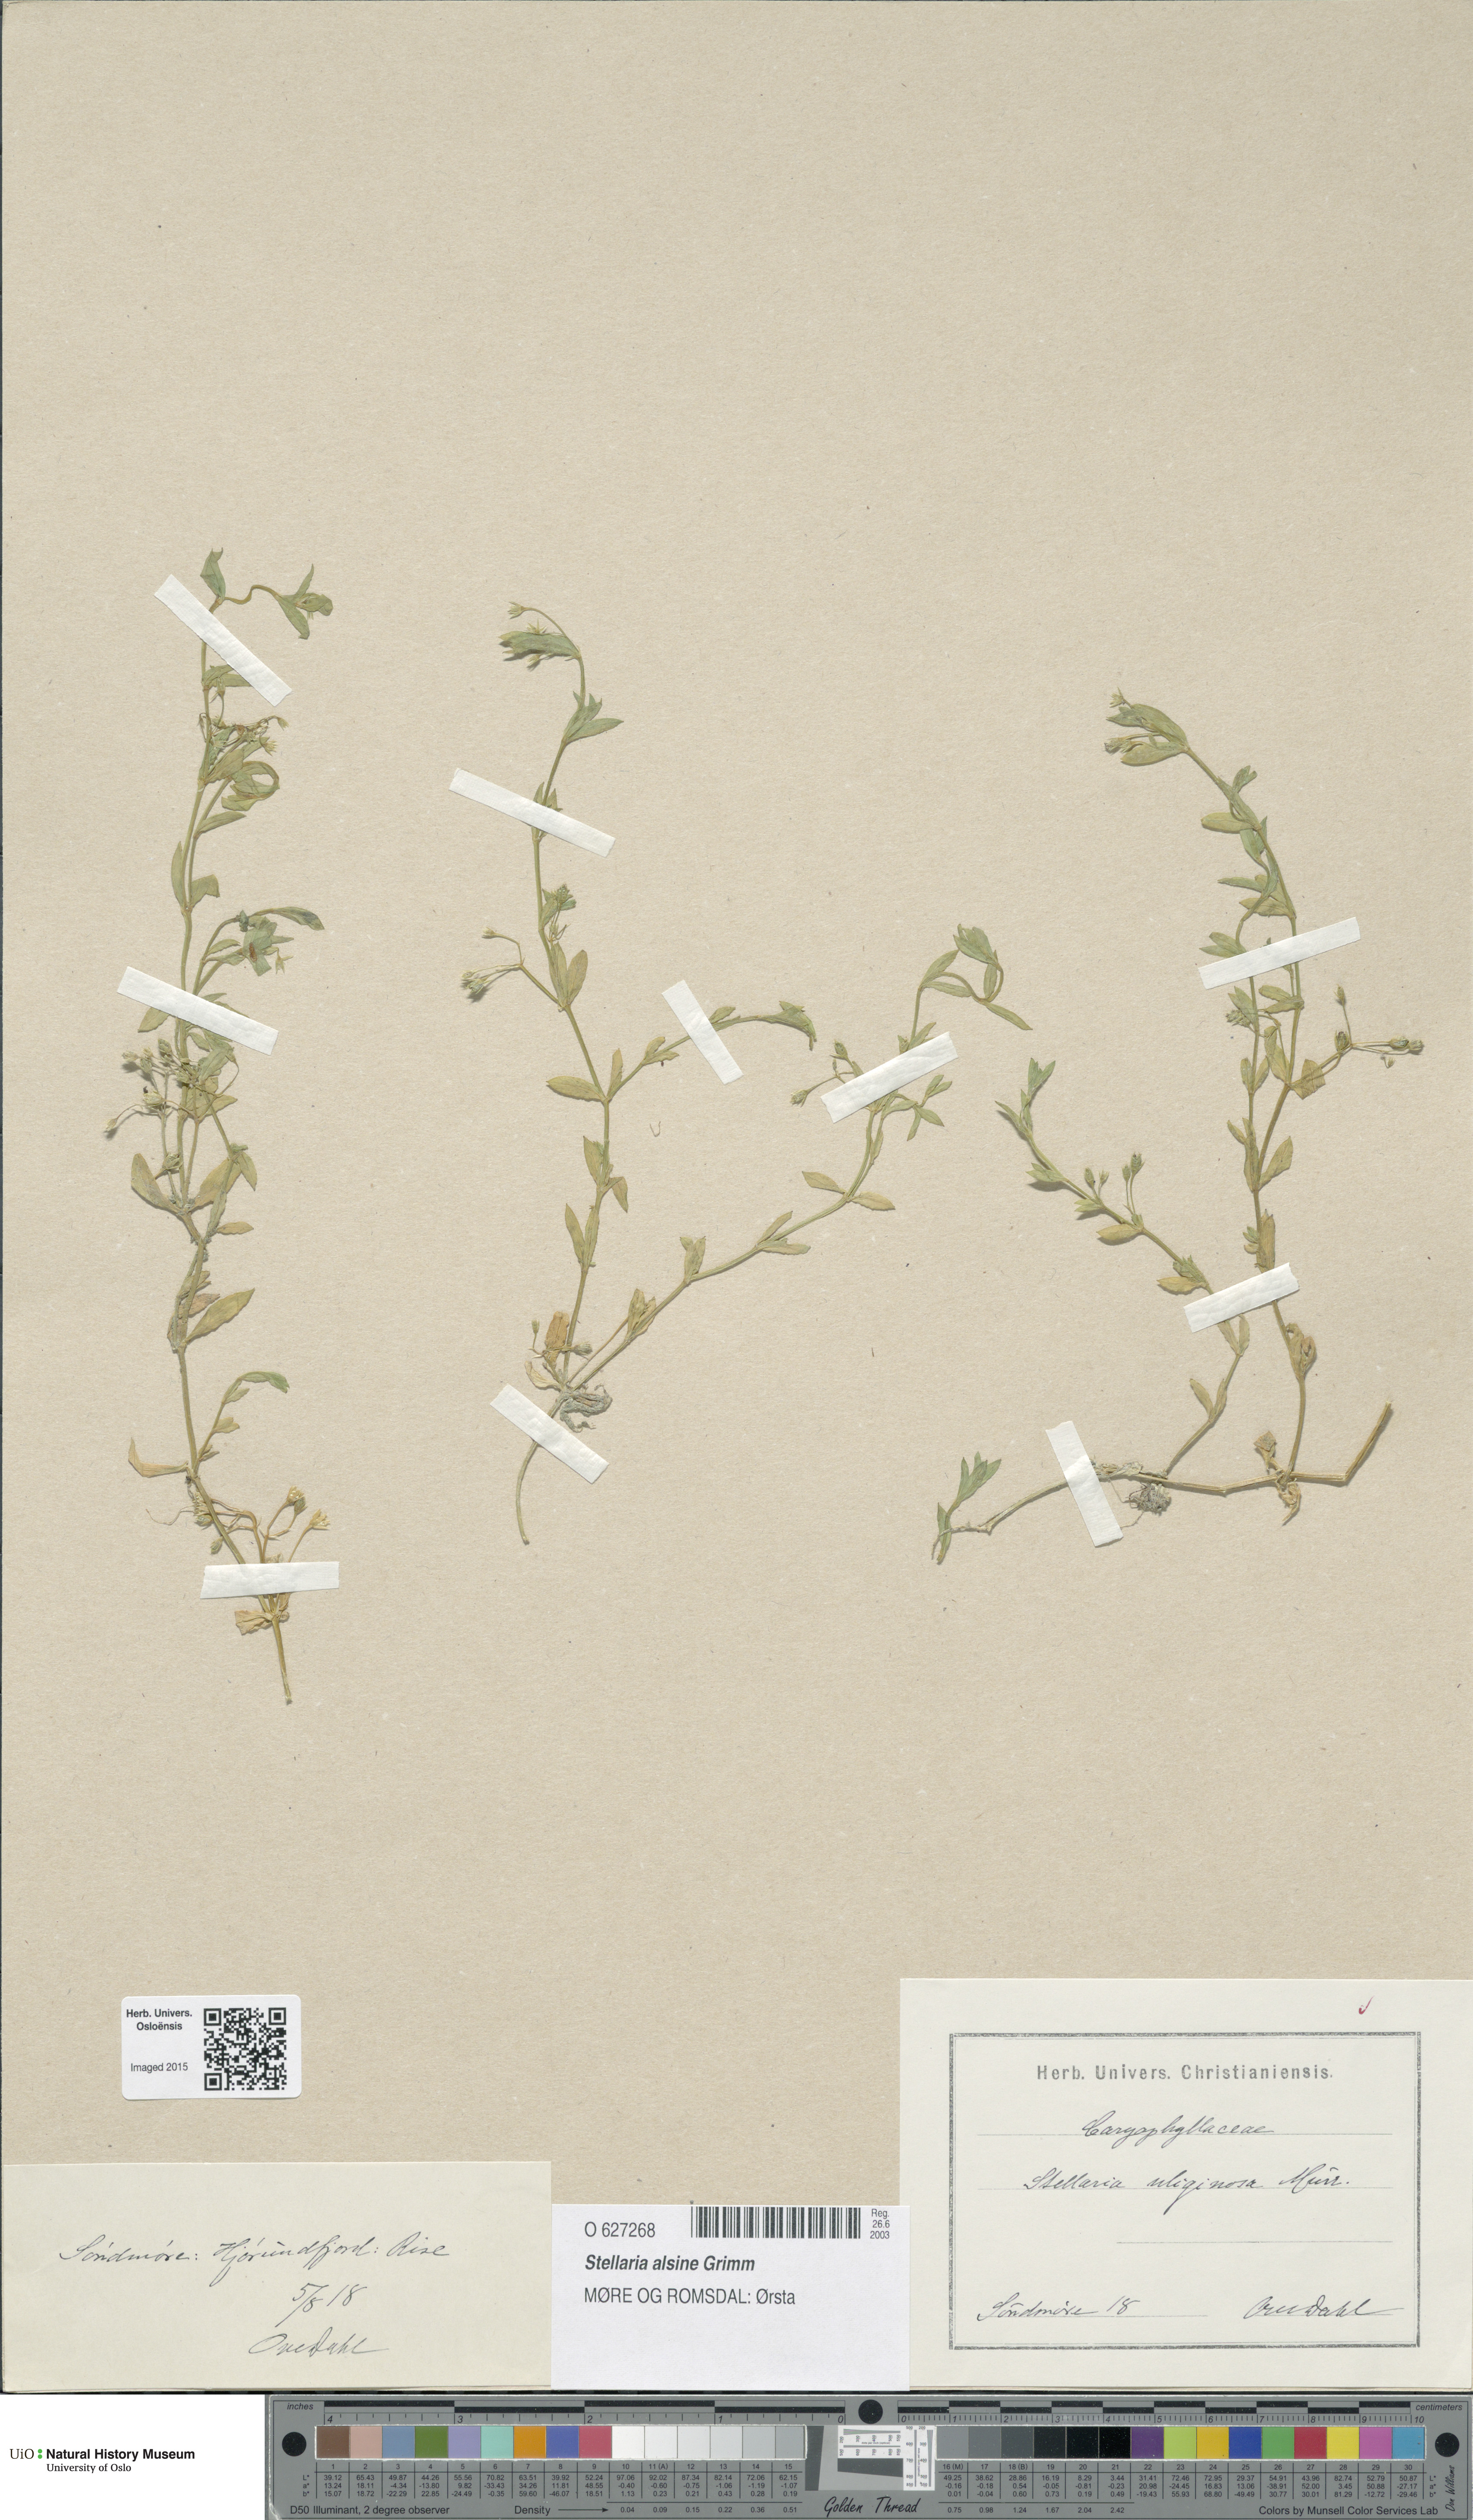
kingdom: Plantae
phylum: Tracheophyta
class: Magnoliopsida
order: Caryophyllales
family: Caryophyllaceae
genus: Stellaria
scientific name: Stellaria alsine
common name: Bog stitchwort
